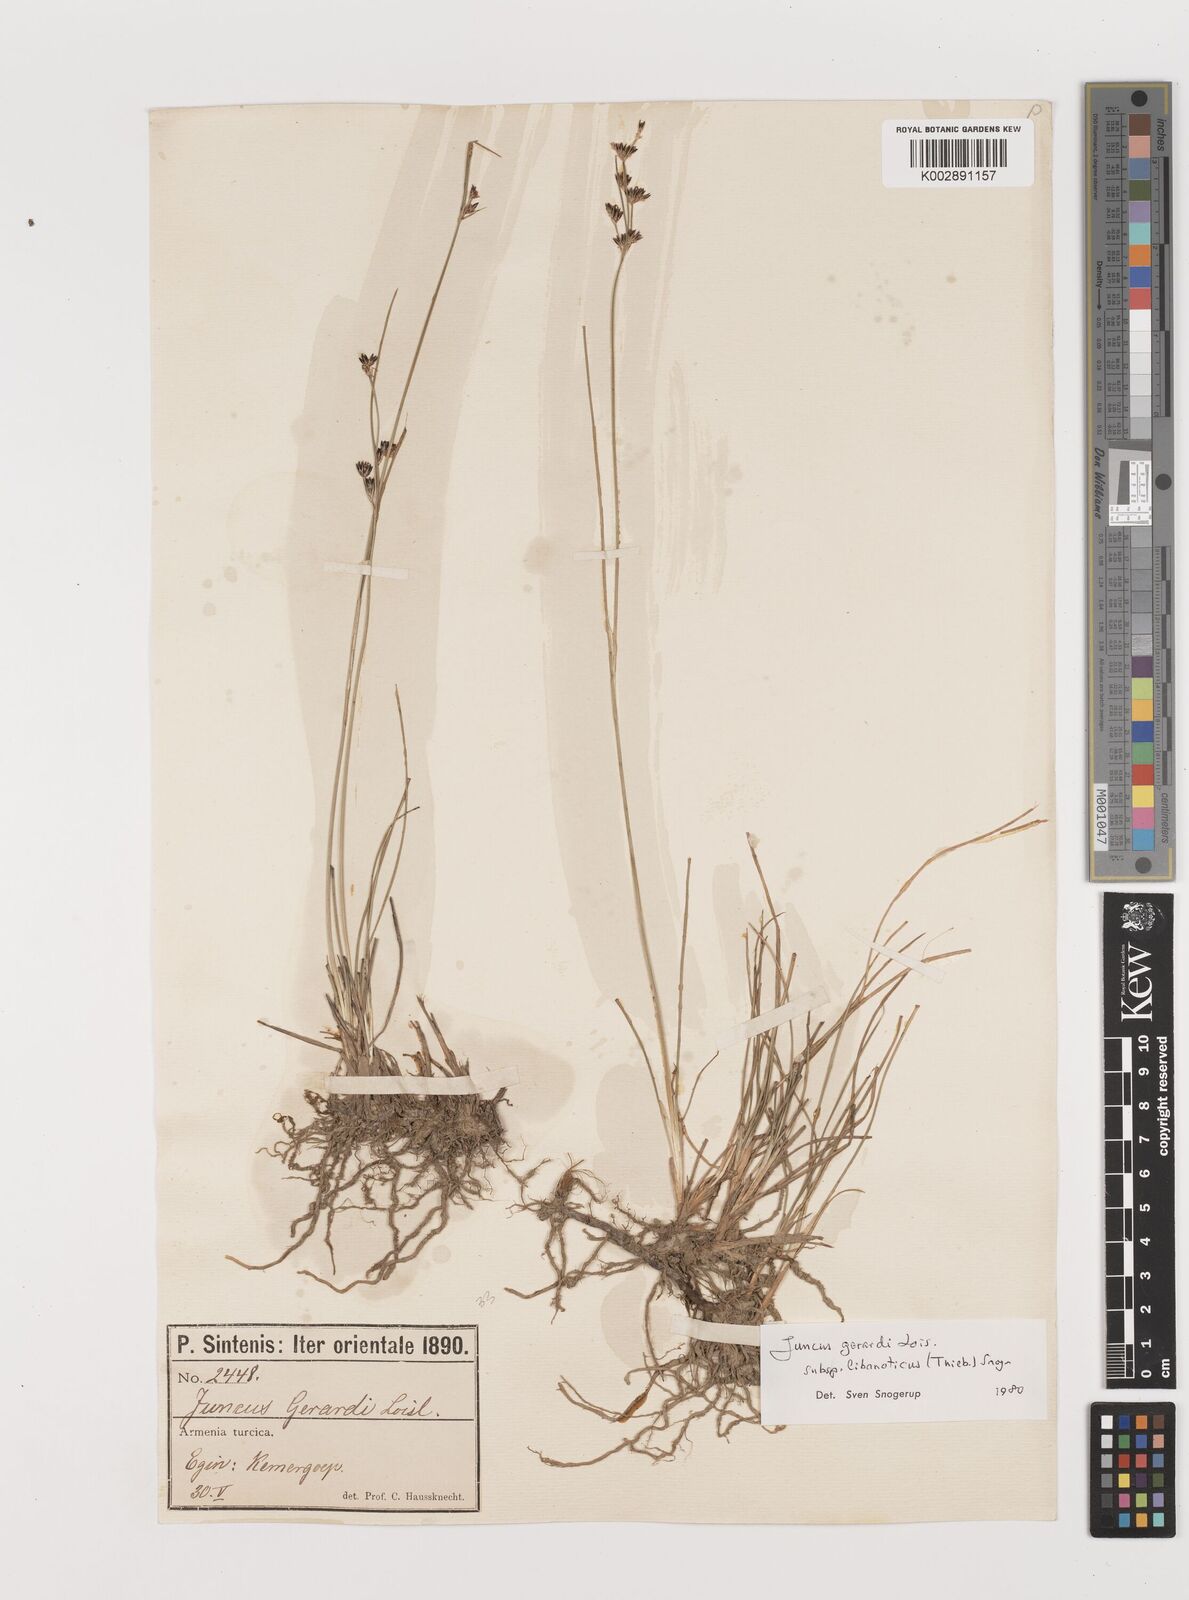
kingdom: Plantae
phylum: Tracheophyta
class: Liliopsida
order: Poales
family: Juncaceae
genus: Juncus
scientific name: Juncus persicus
